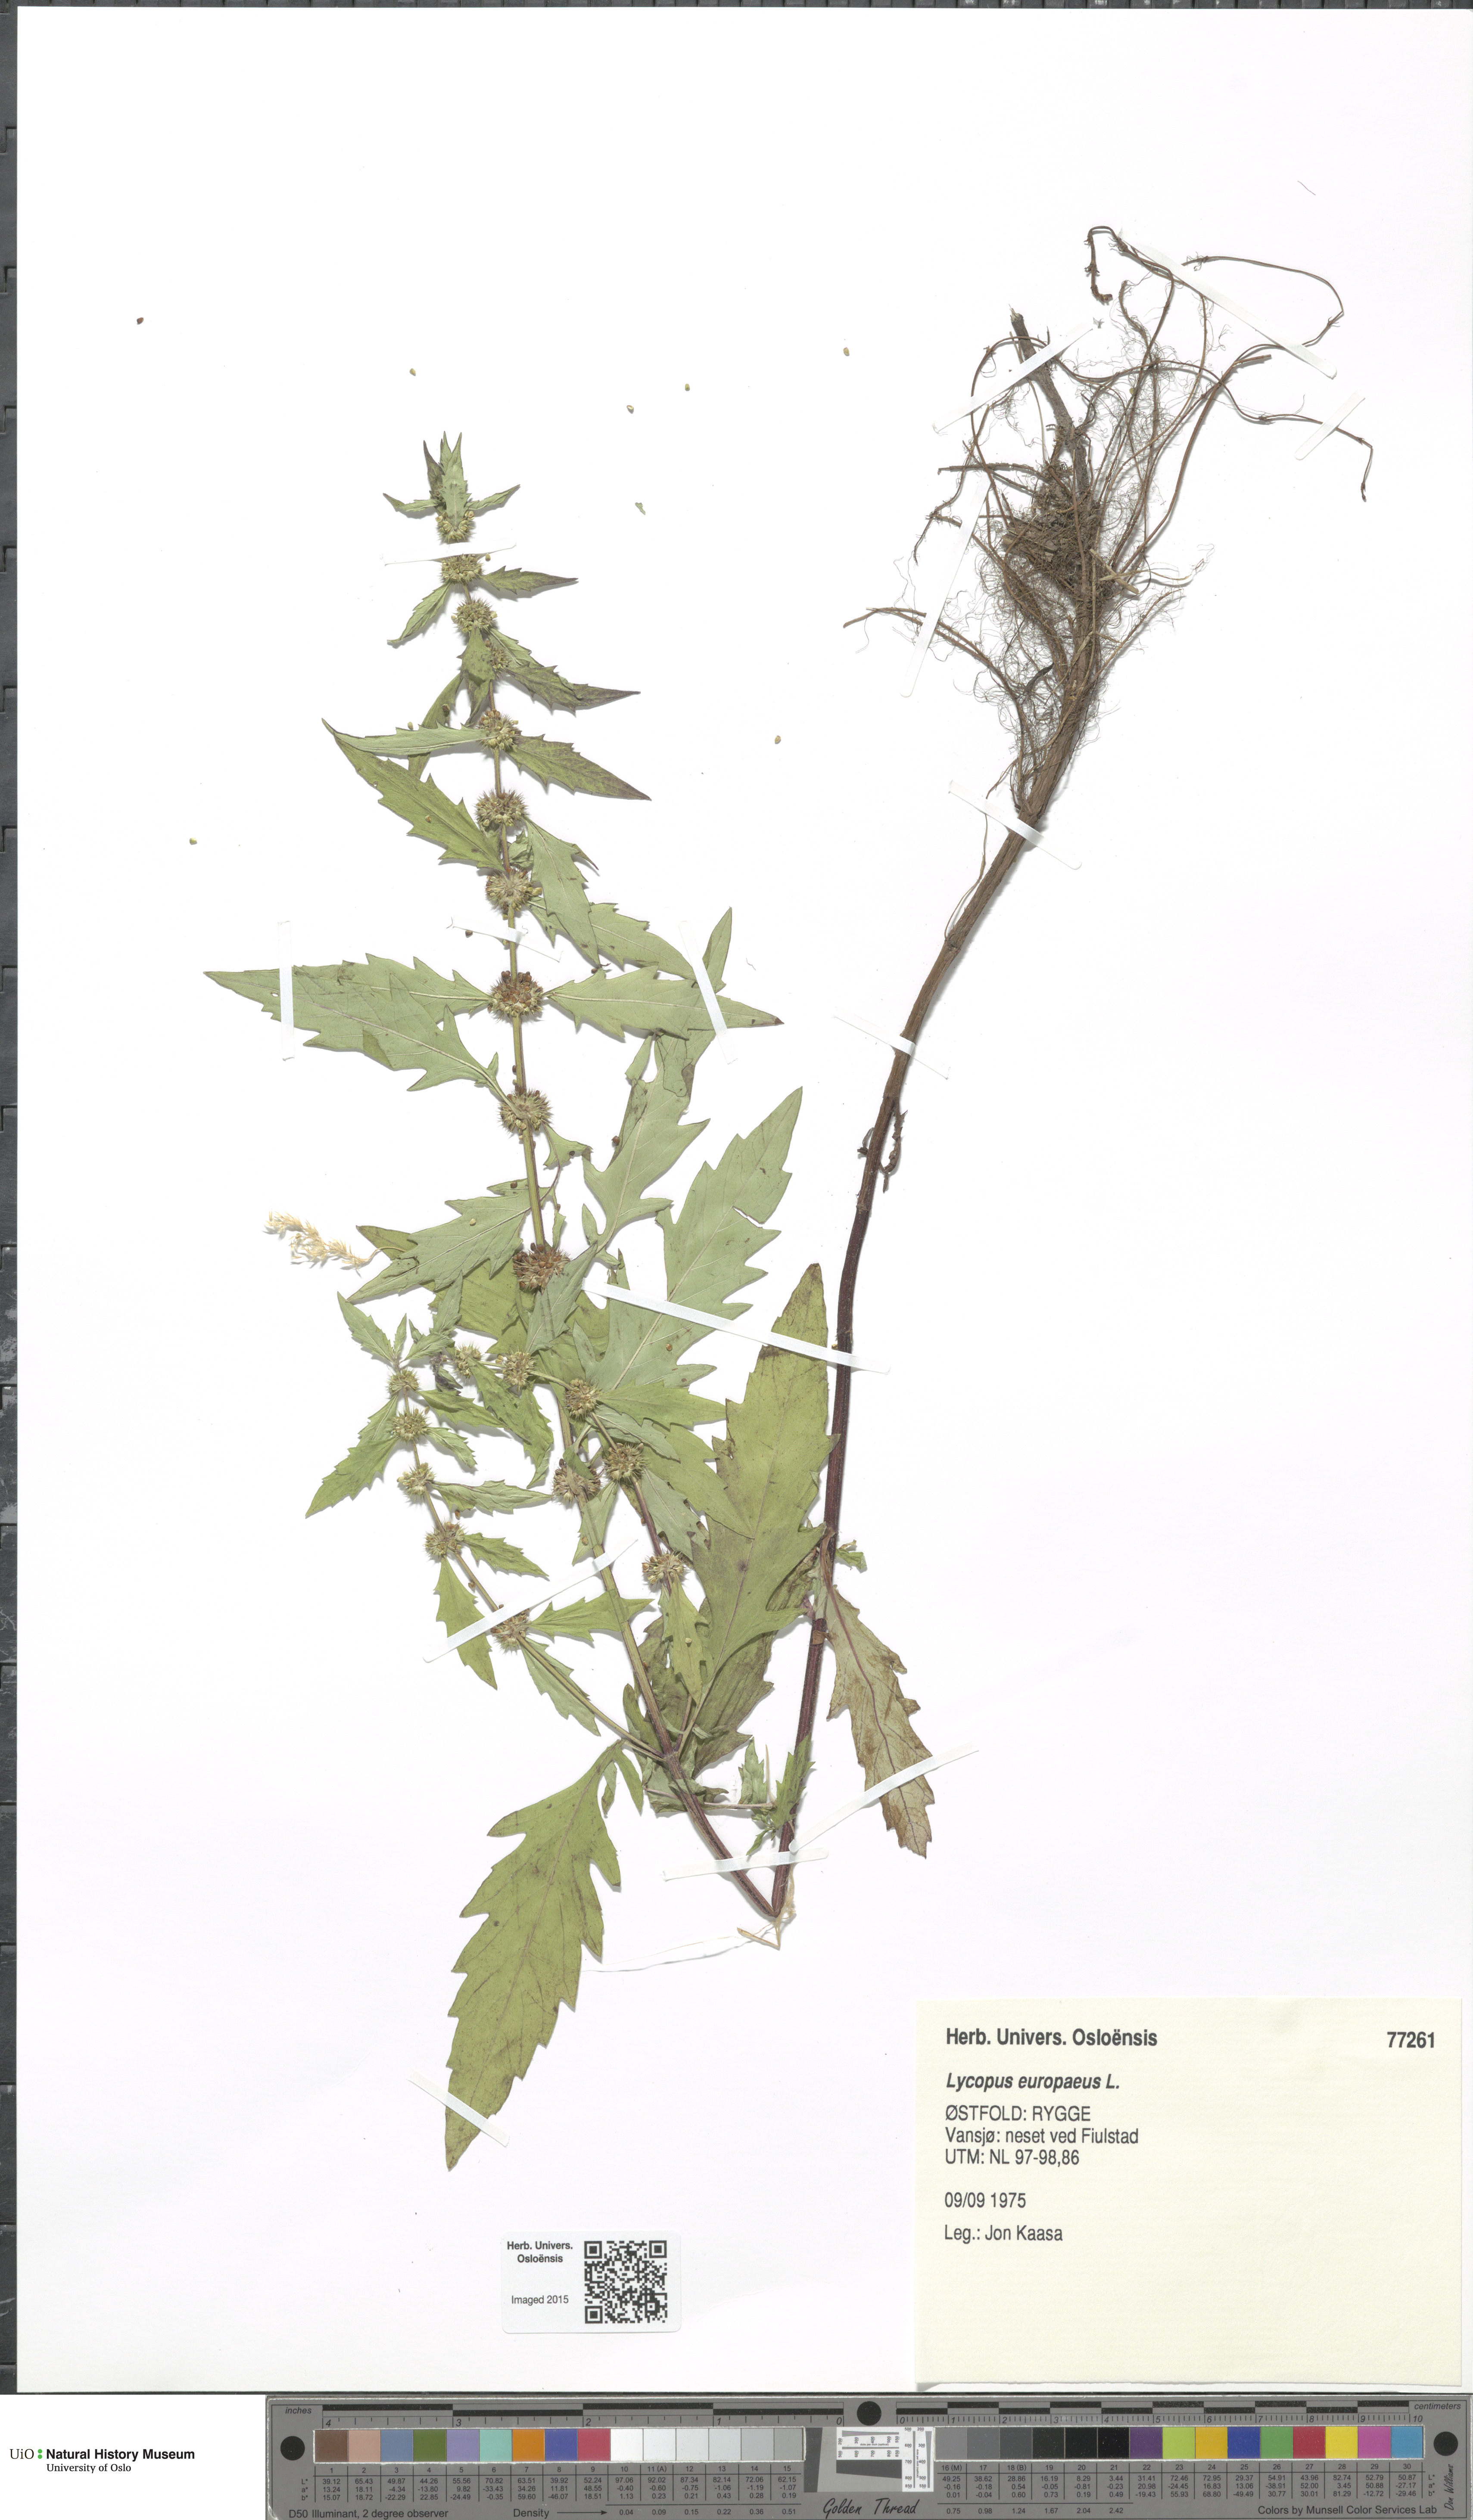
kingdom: Plantae
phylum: Tracheophyta
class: Magnoliopsida
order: Lamiales
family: Lamiaceae
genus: Lycopus
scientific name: Lycopus europaeus
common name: European bugleweed
